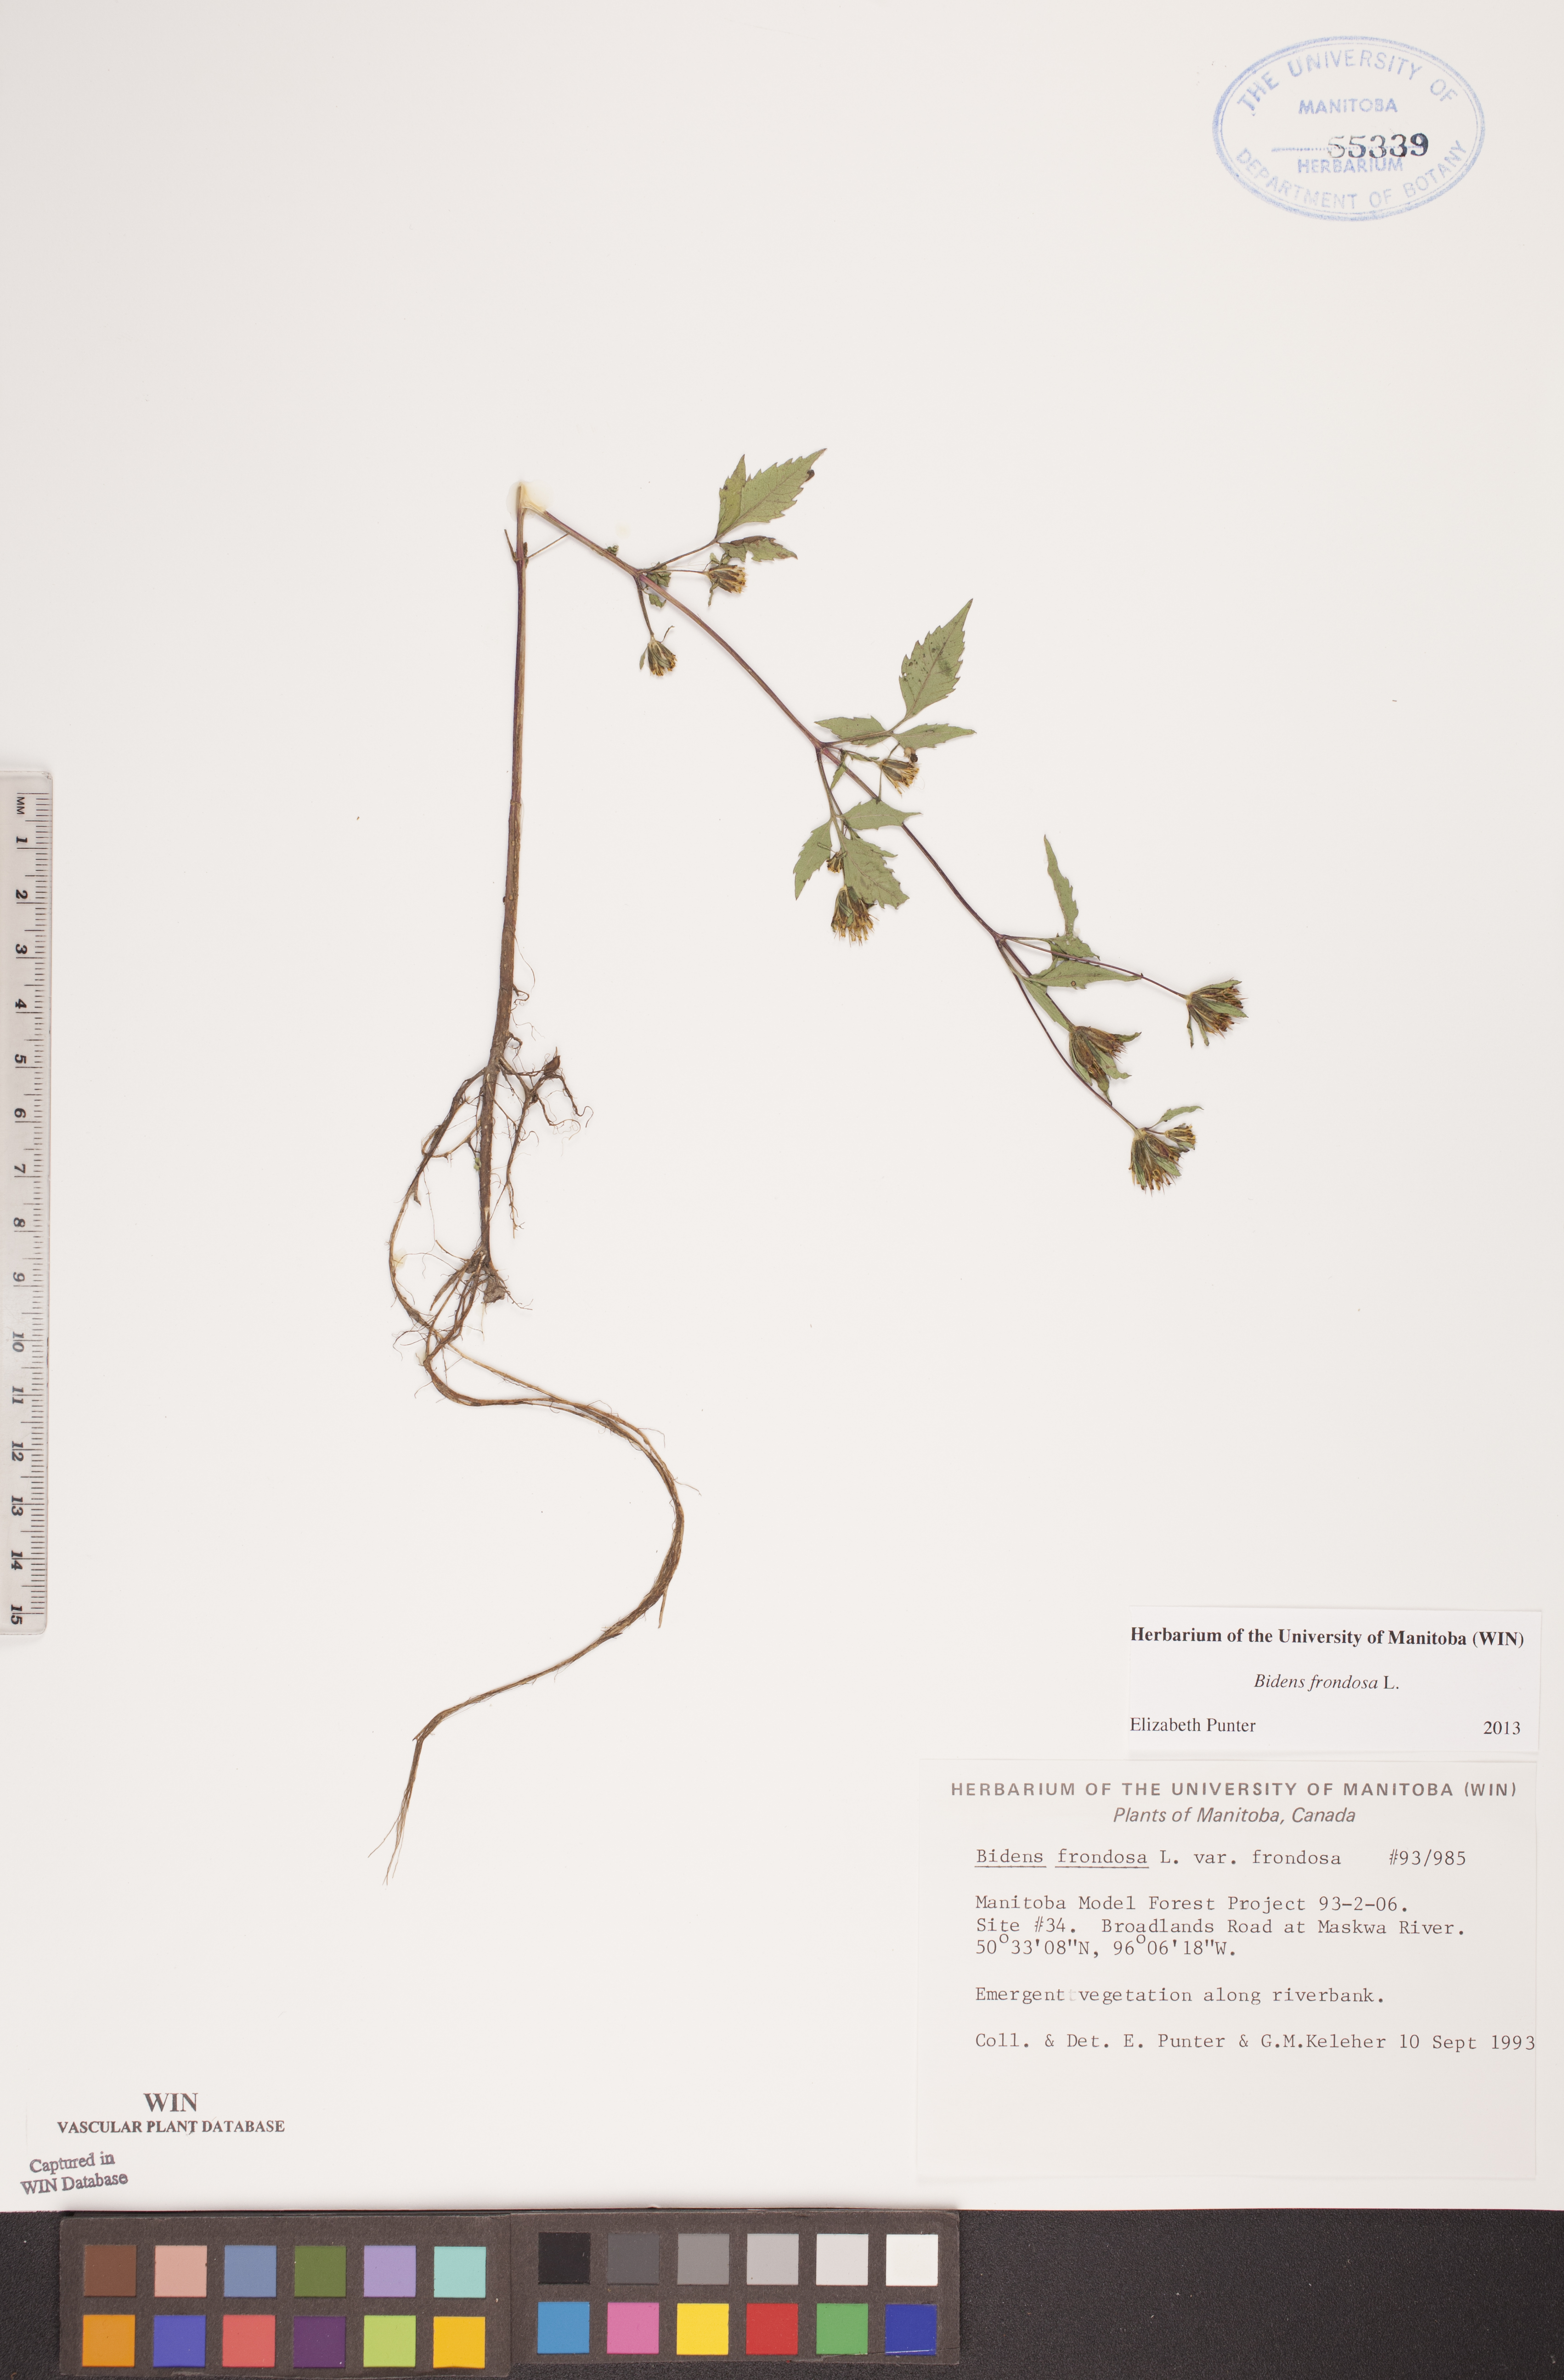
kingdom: Plantae
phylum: Tracheophyta
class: Magnoliopsida
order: Asterales
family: Asteraceae
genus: Bidens
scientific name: Bidens frondosa
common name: Beggarticks
